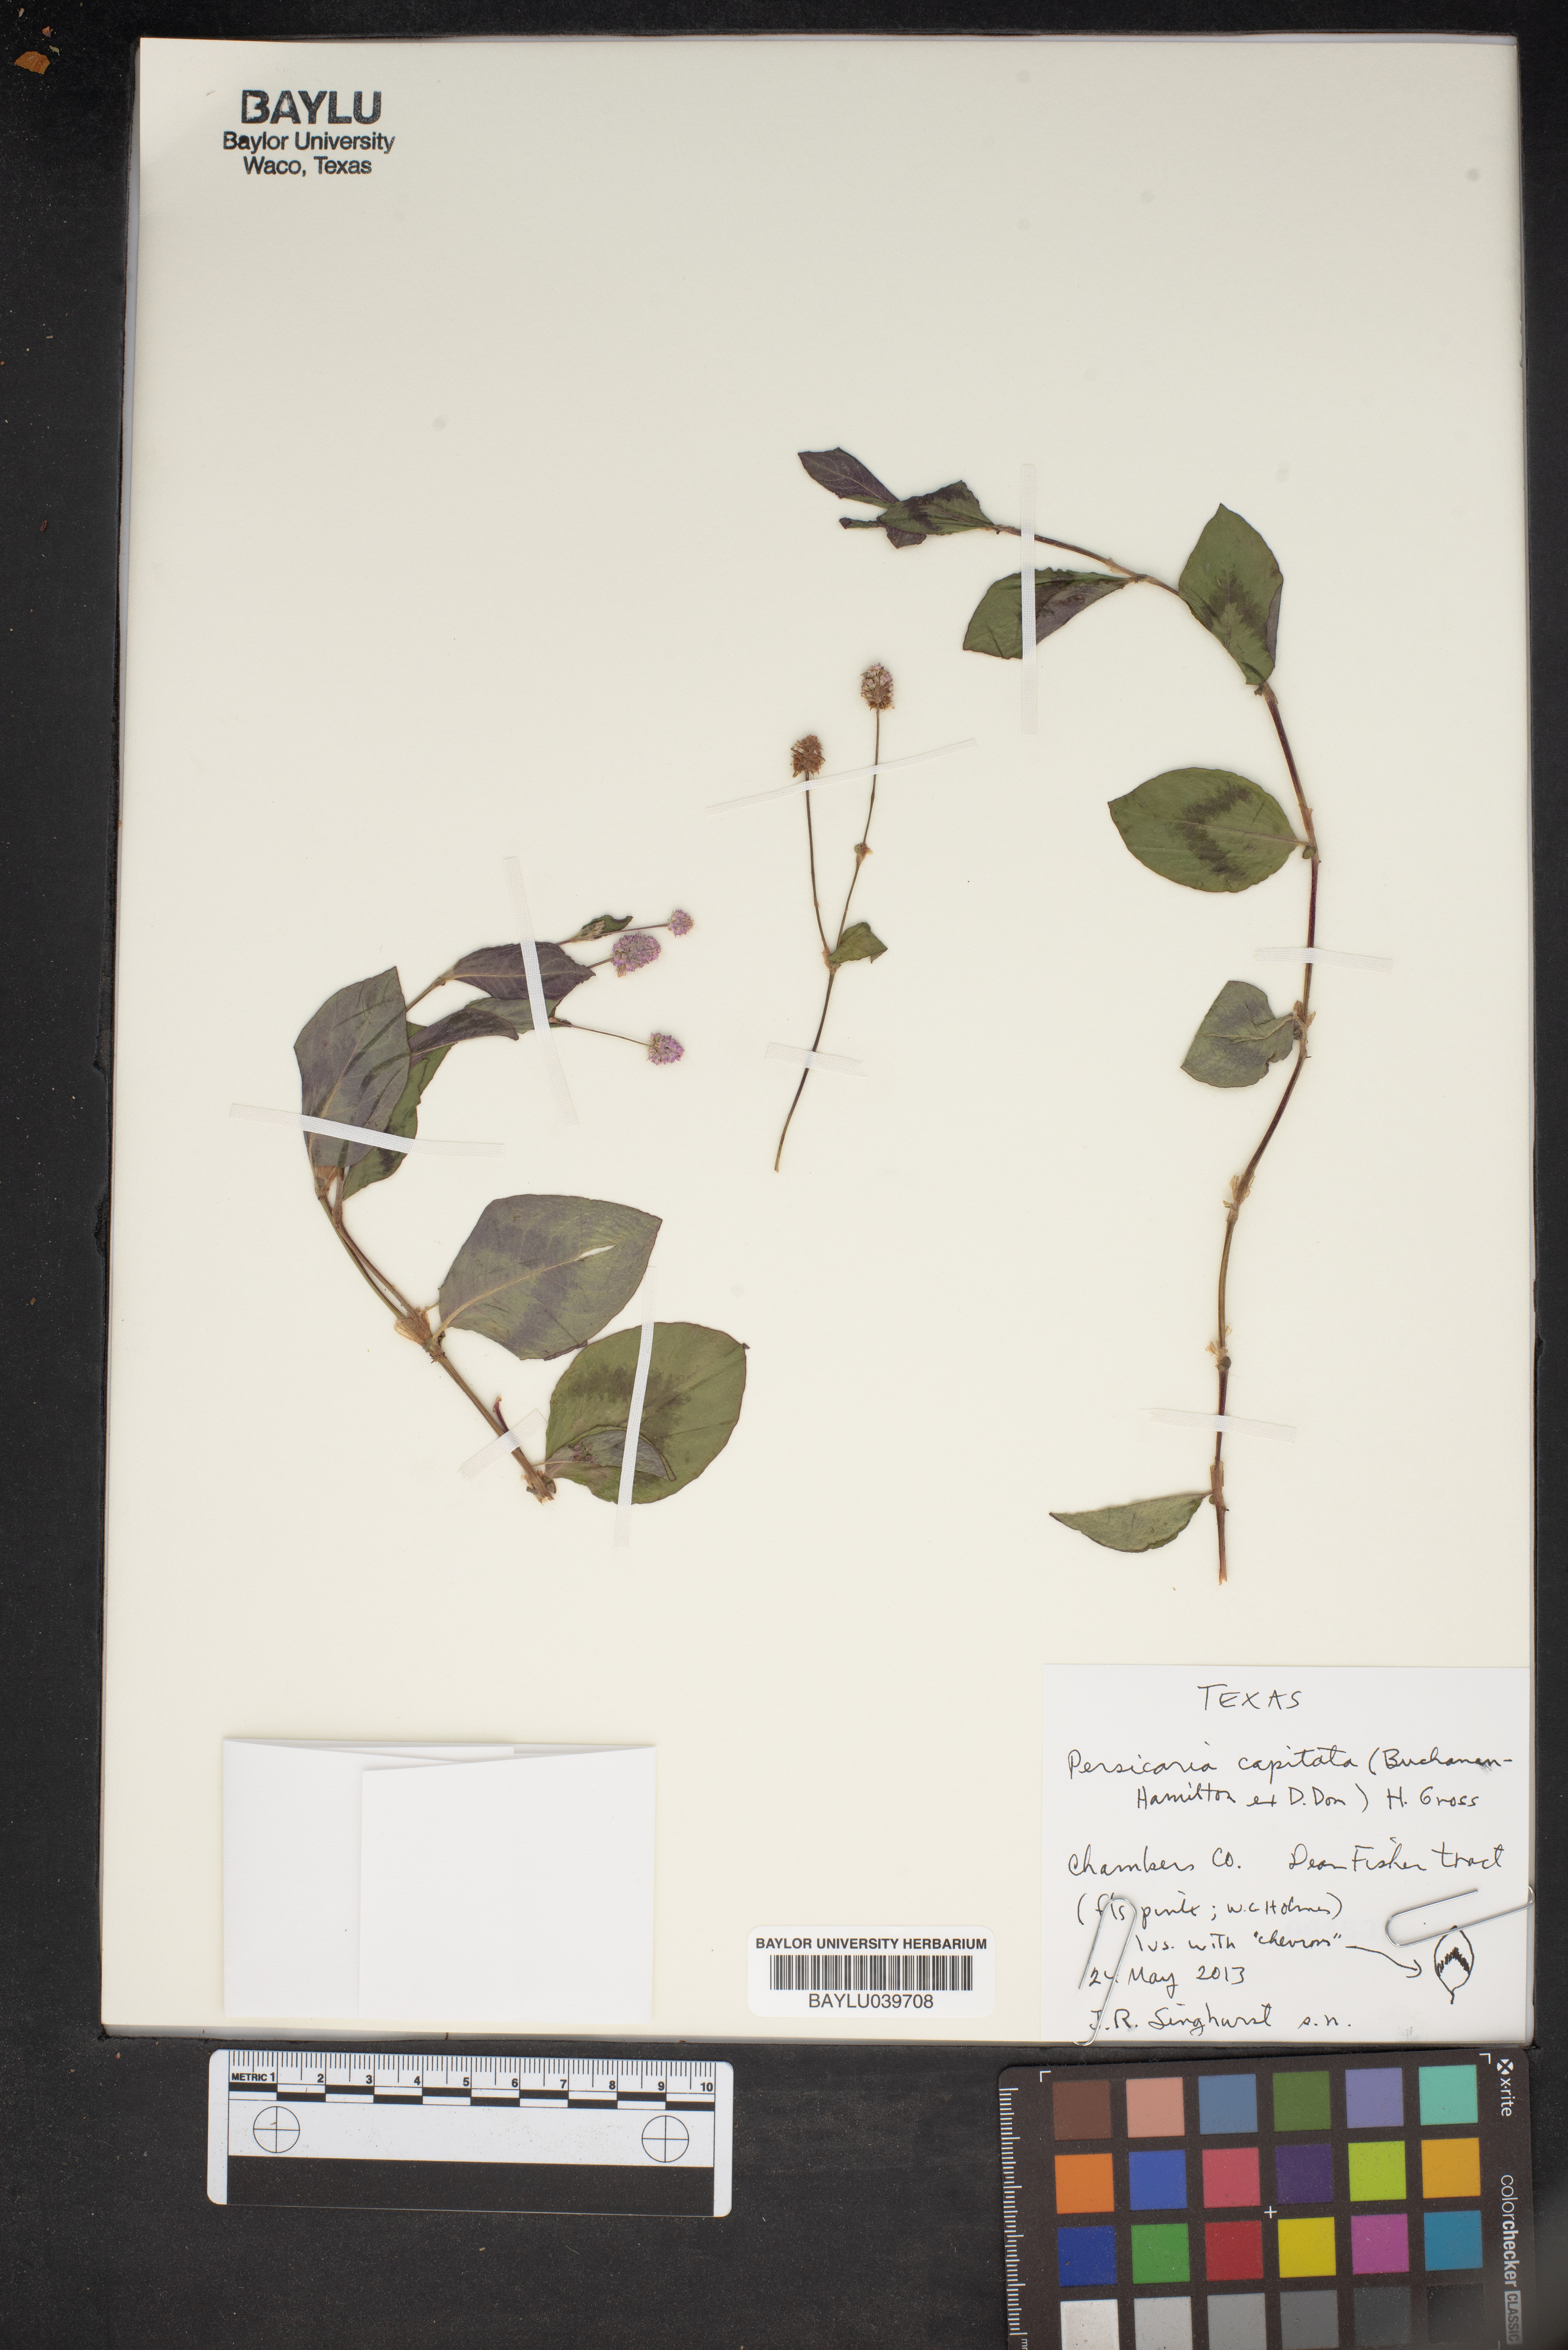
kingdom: Plantae
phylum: Tracheophyta
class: Magnoliopsida
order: Caryophyllales
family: Polygonaceae
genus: Persicaria
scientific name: Persicaria capitata
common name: Pinkhead smartweed
